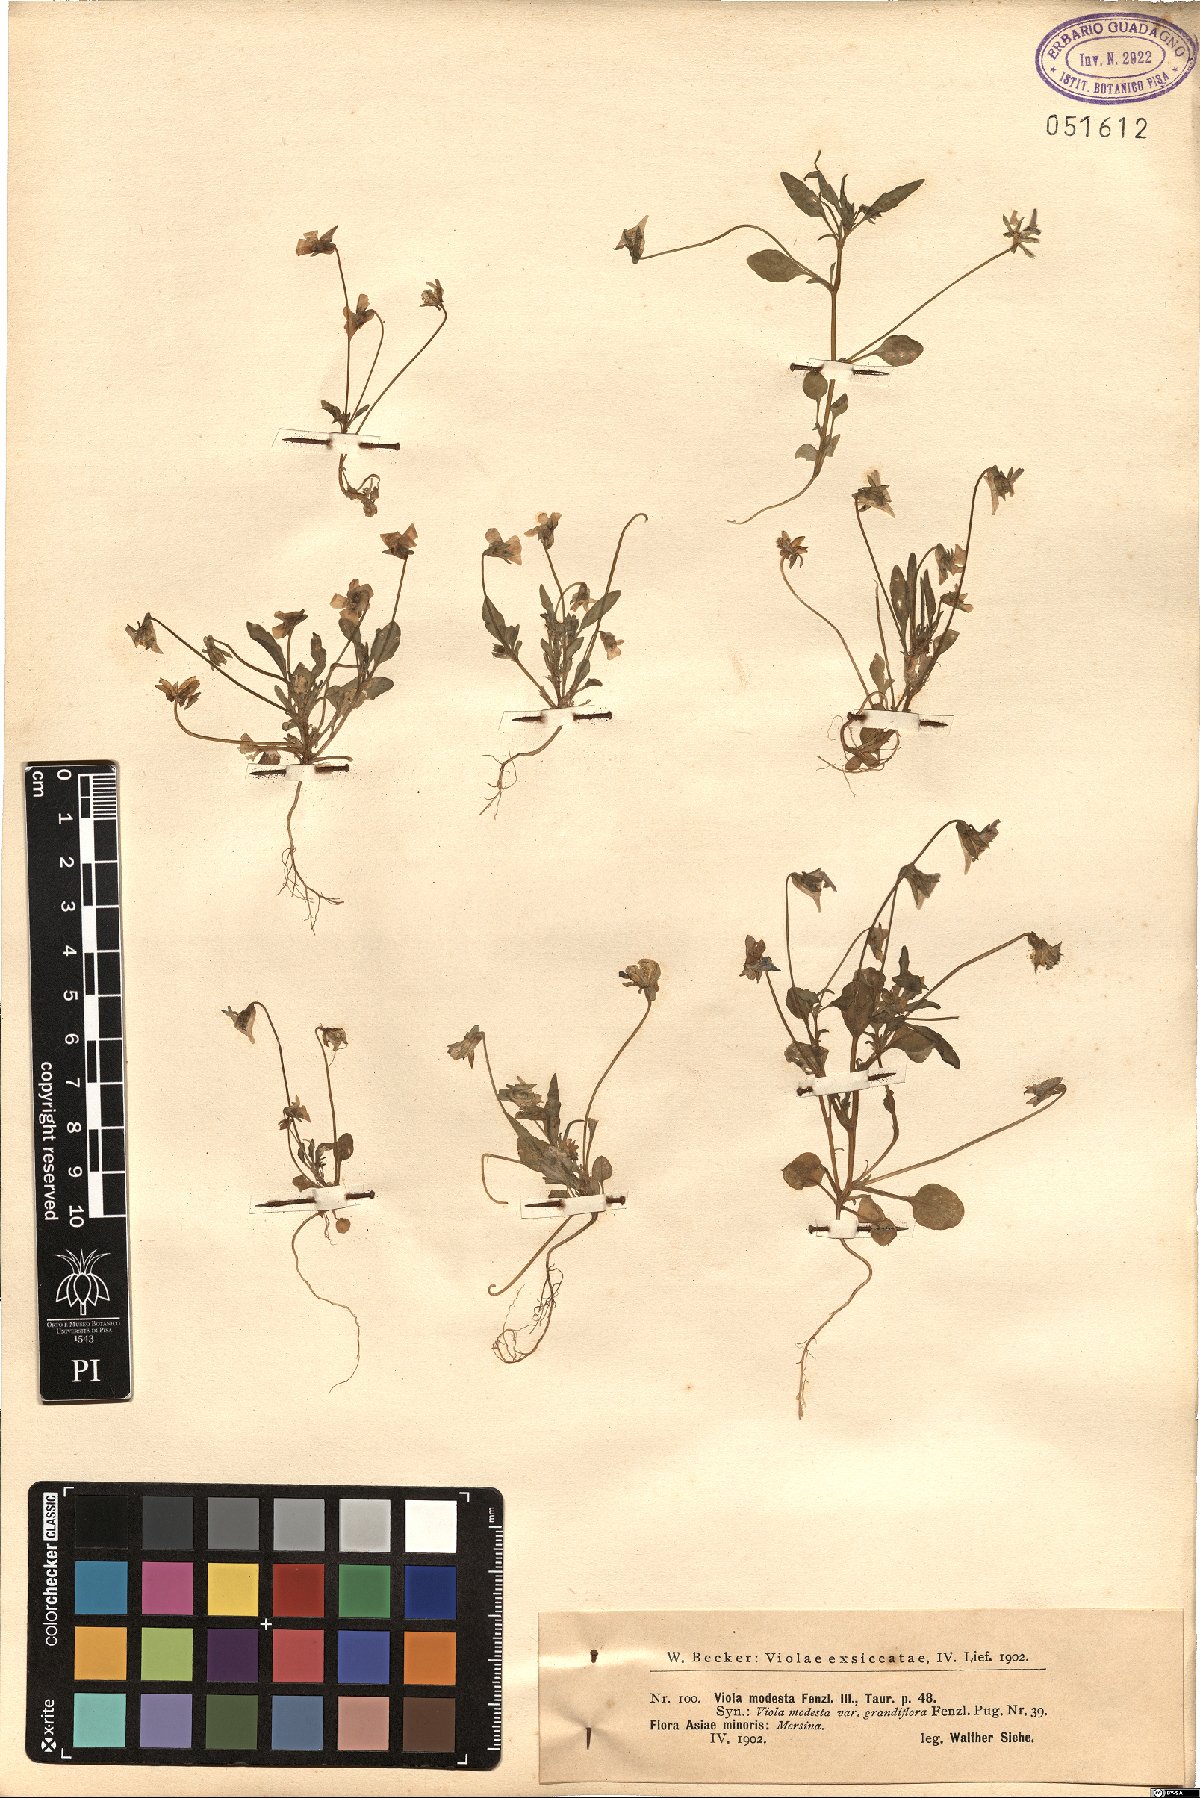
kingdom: Plantae
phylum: Tracheophyta
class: Magnoliopsida
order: Malpighiales
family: Violaceae
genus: Viola
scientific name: Viola modesta
